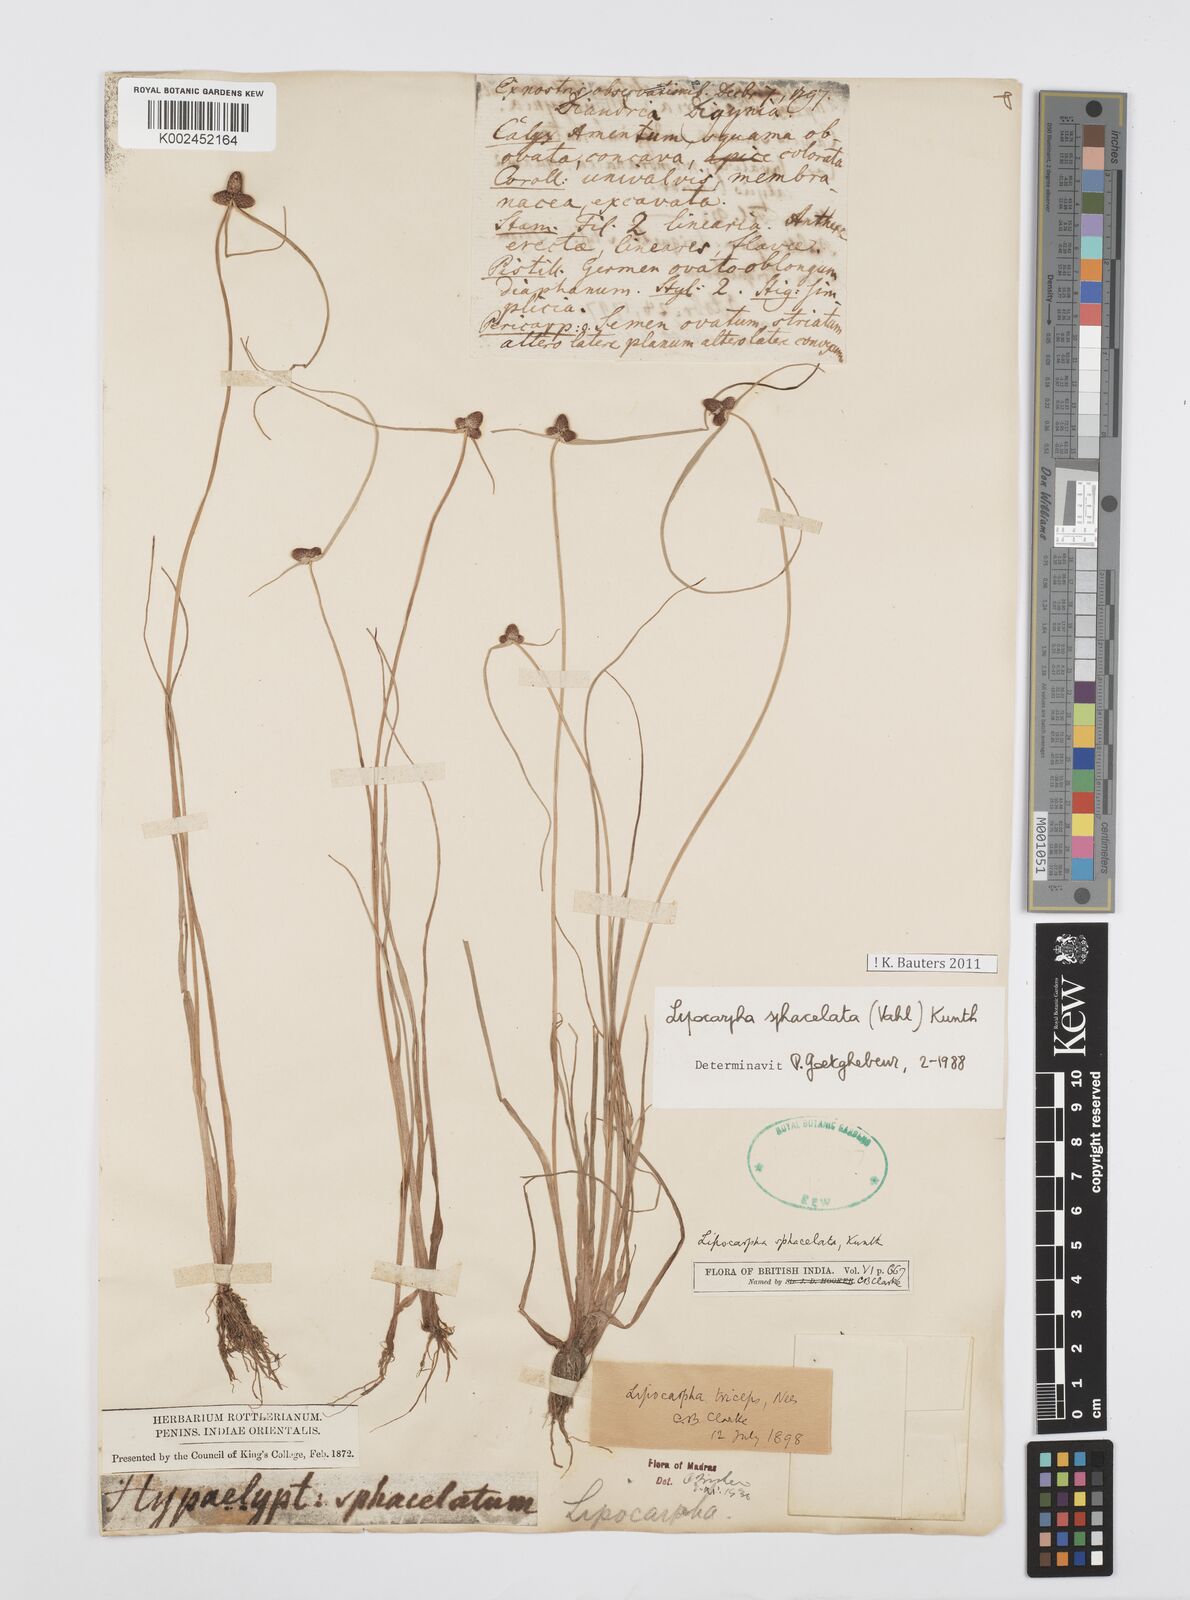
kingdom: Plantae
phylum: Tracheophyta
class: Liliopsida
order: Poales
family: Cyperaceae
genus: Cyperus
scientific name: Cyperus sphacelatus
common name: Roadside flatsedge
